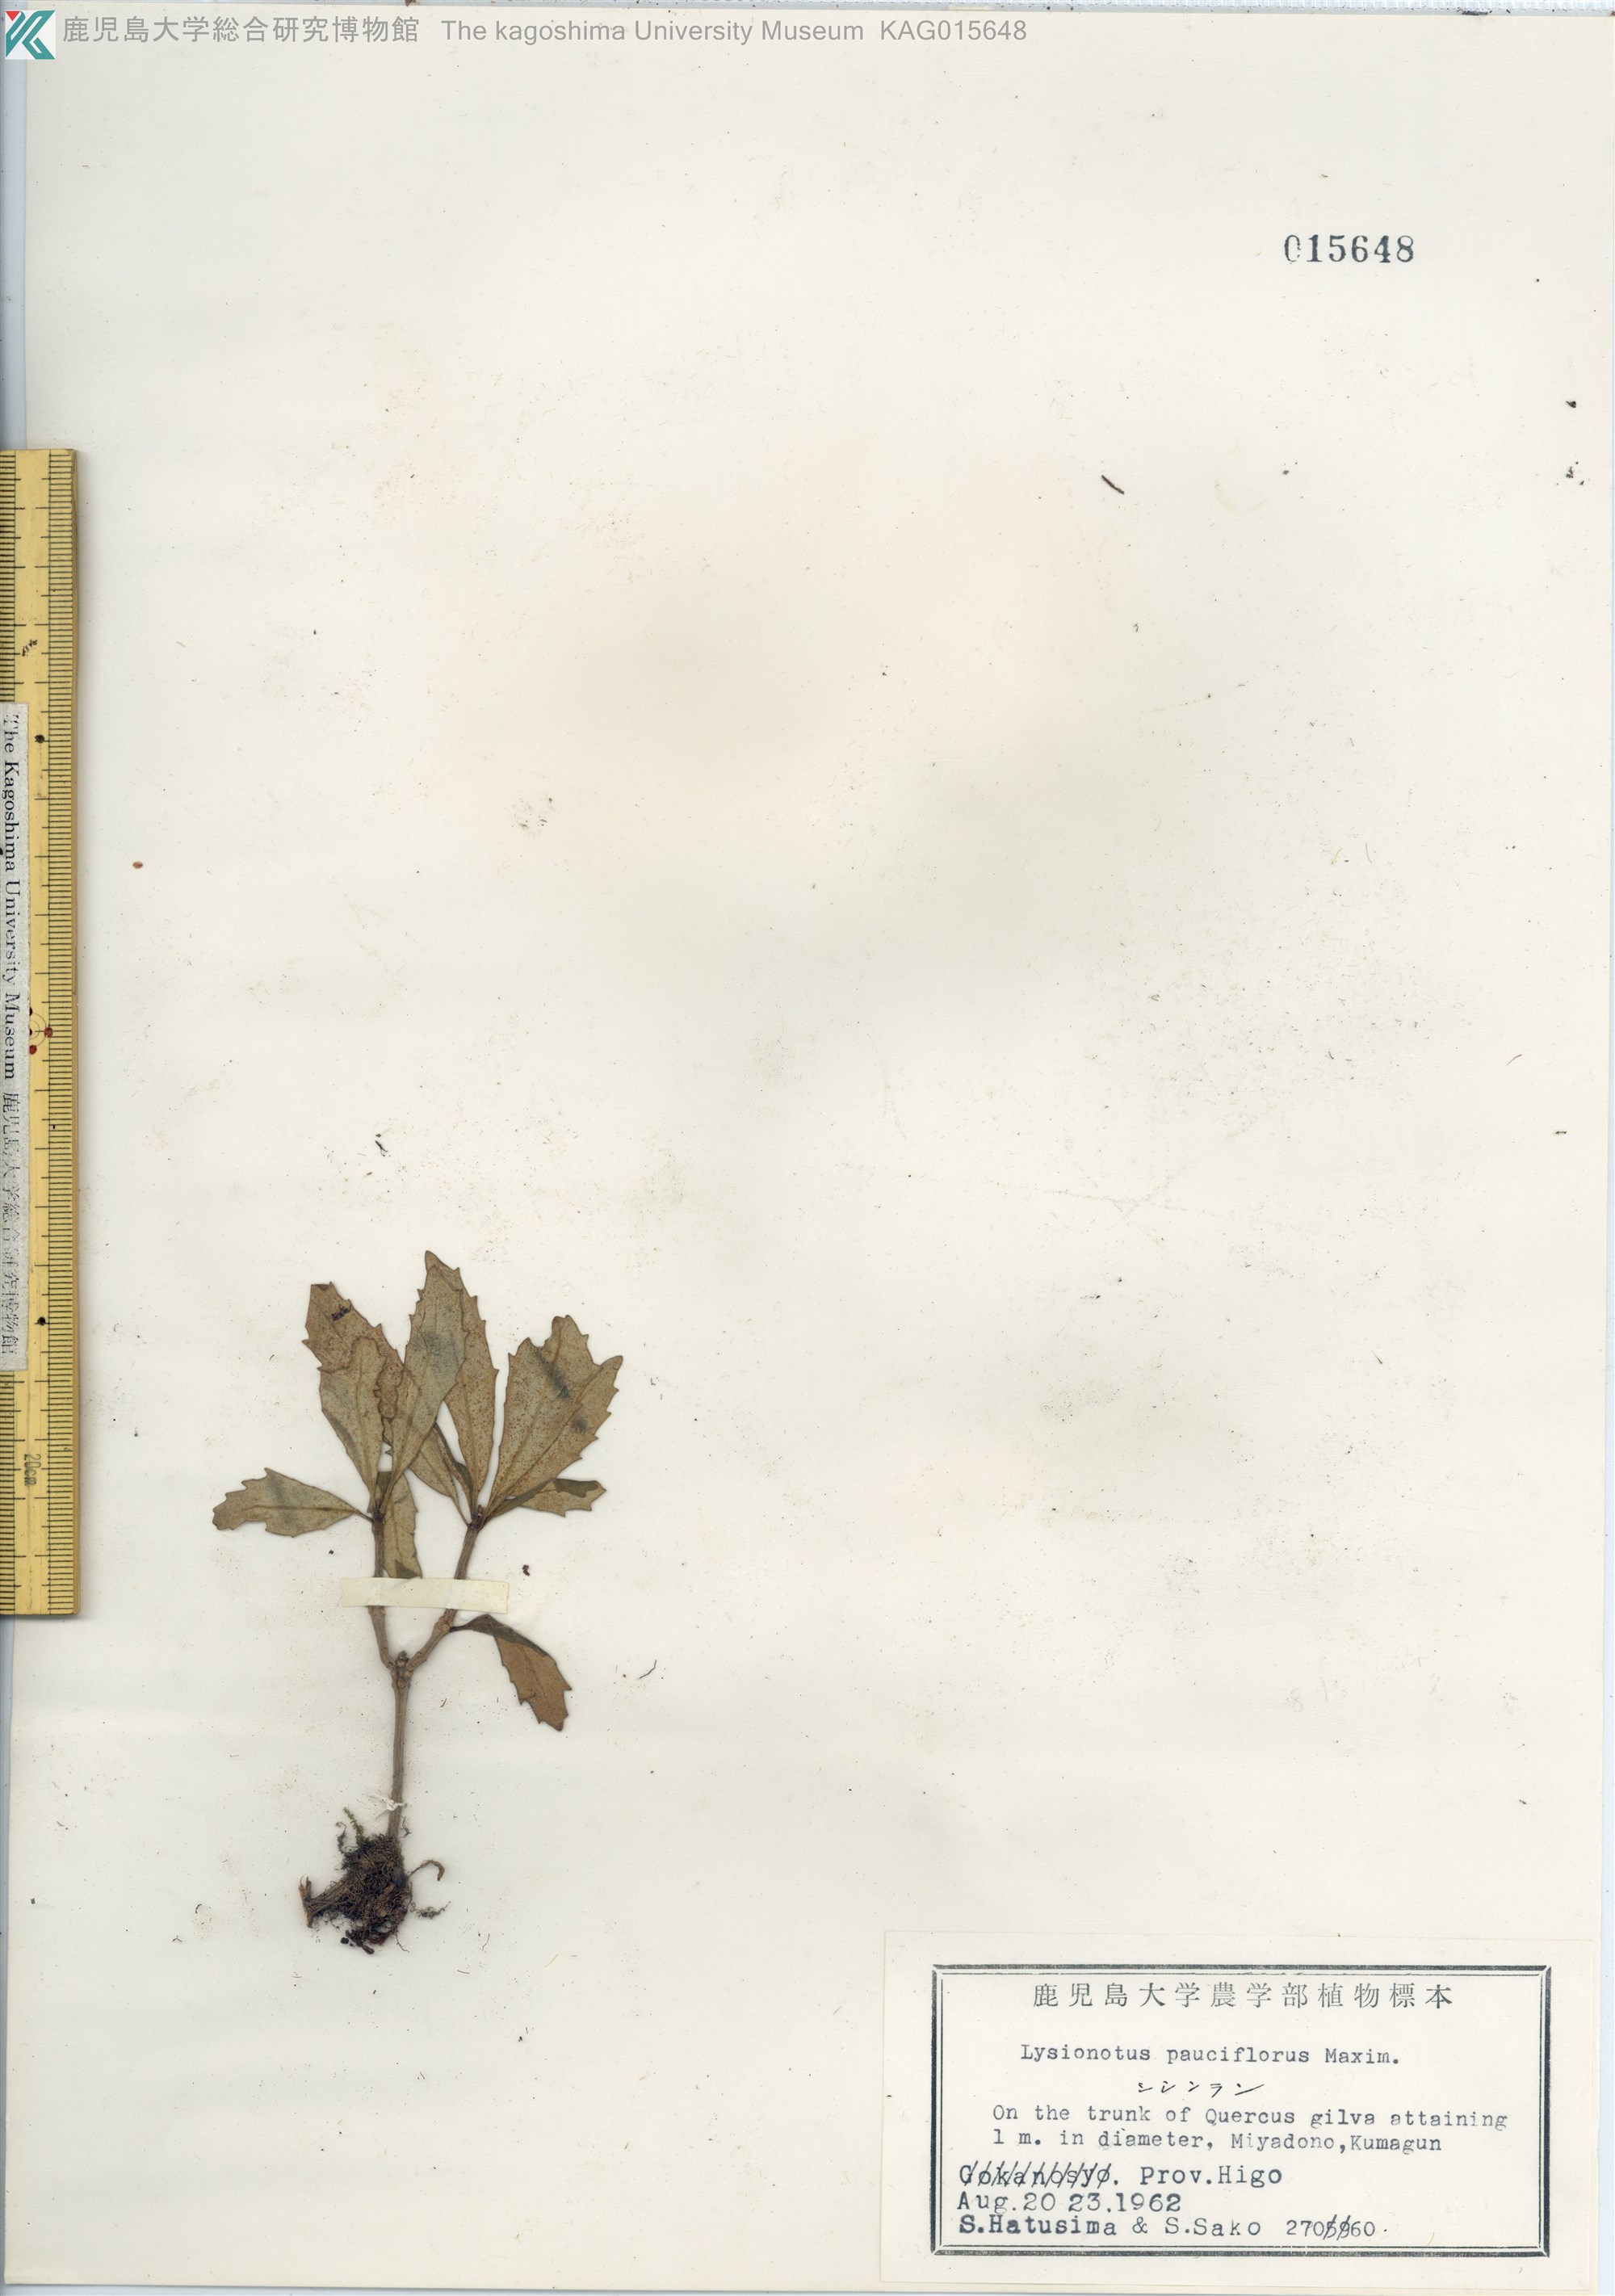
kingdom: Plantae
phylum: Tracheophyta
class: Magnoliopsida
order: Lamiales
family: Gesneriaceae
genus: Lysionotus
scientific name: Lysionotus pauciflorus
